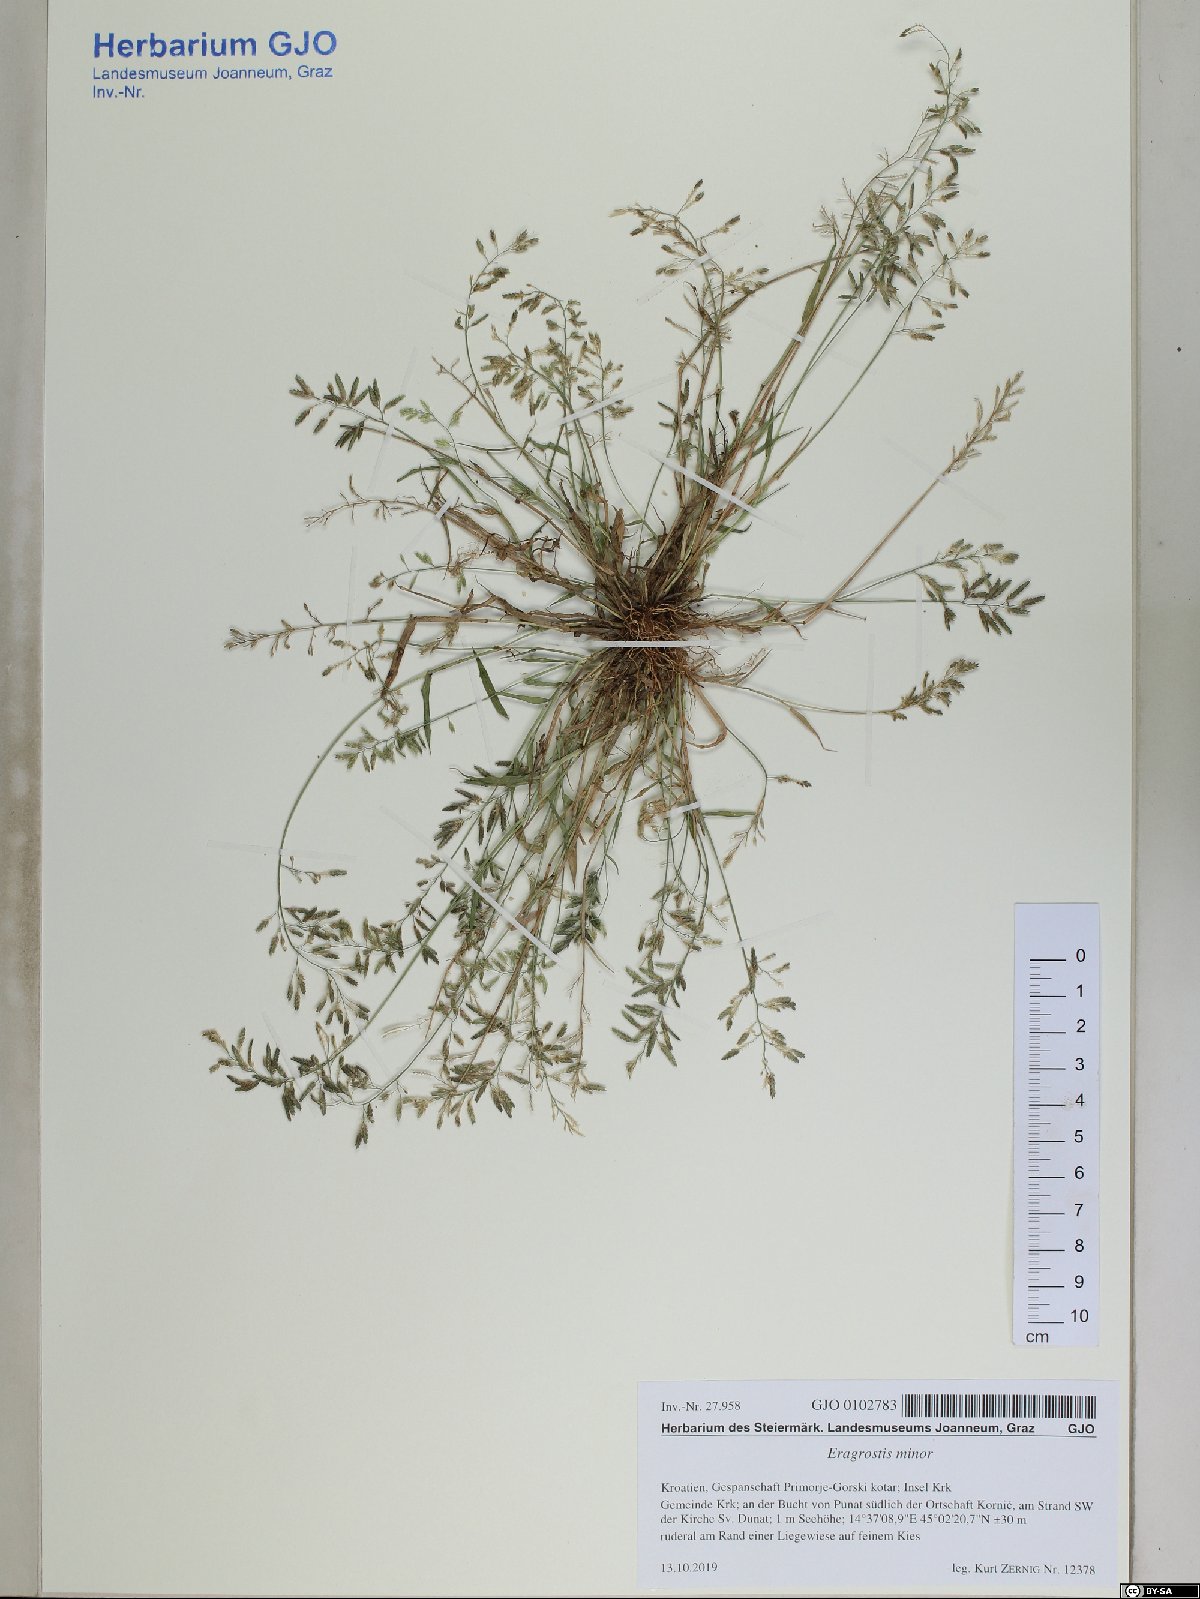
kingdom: Plantae
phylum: Tracheophyta
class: Liliopsida
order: Poales
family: Poaceae
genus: Eragrostis
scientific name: Eragrostis minor
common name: Small love-grass
